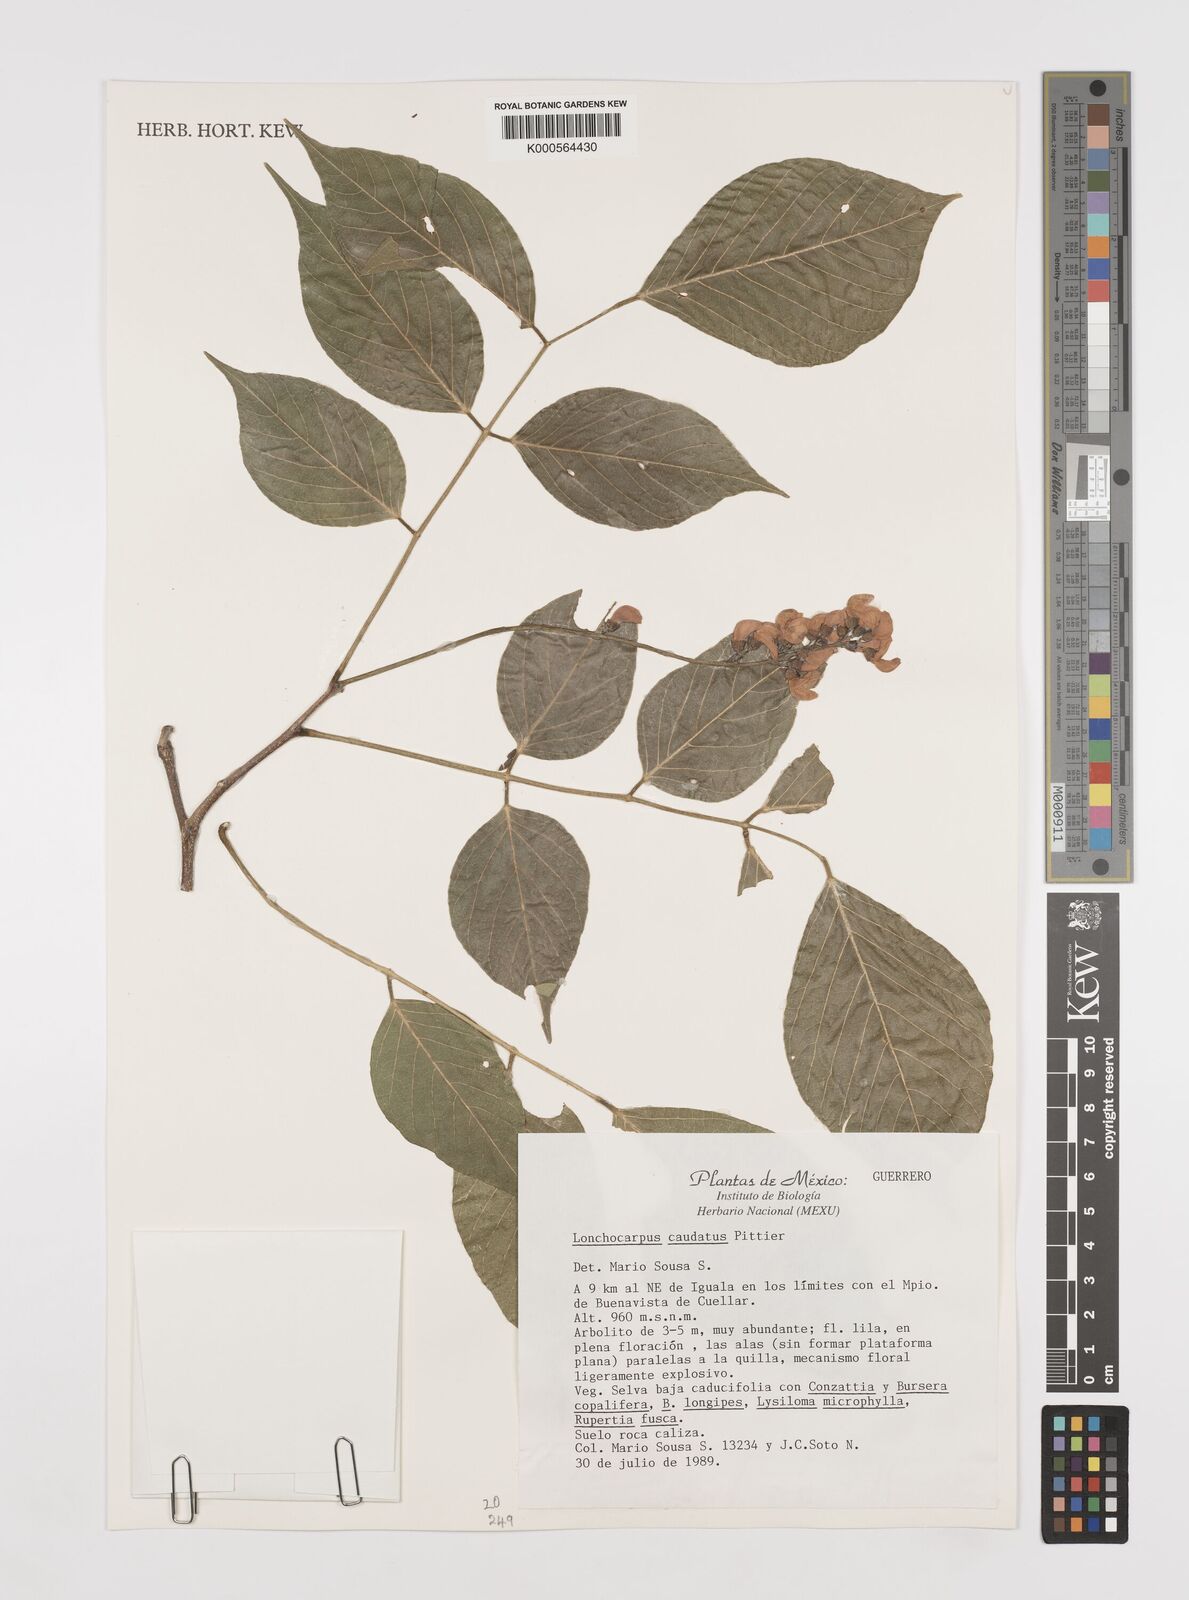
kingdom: Plantae
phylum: Tracheophyta
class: Magnoliopsida
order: Fabales
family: Fabaceae
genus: Lonchocarpus
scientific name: Lonchocarpus caudatus
